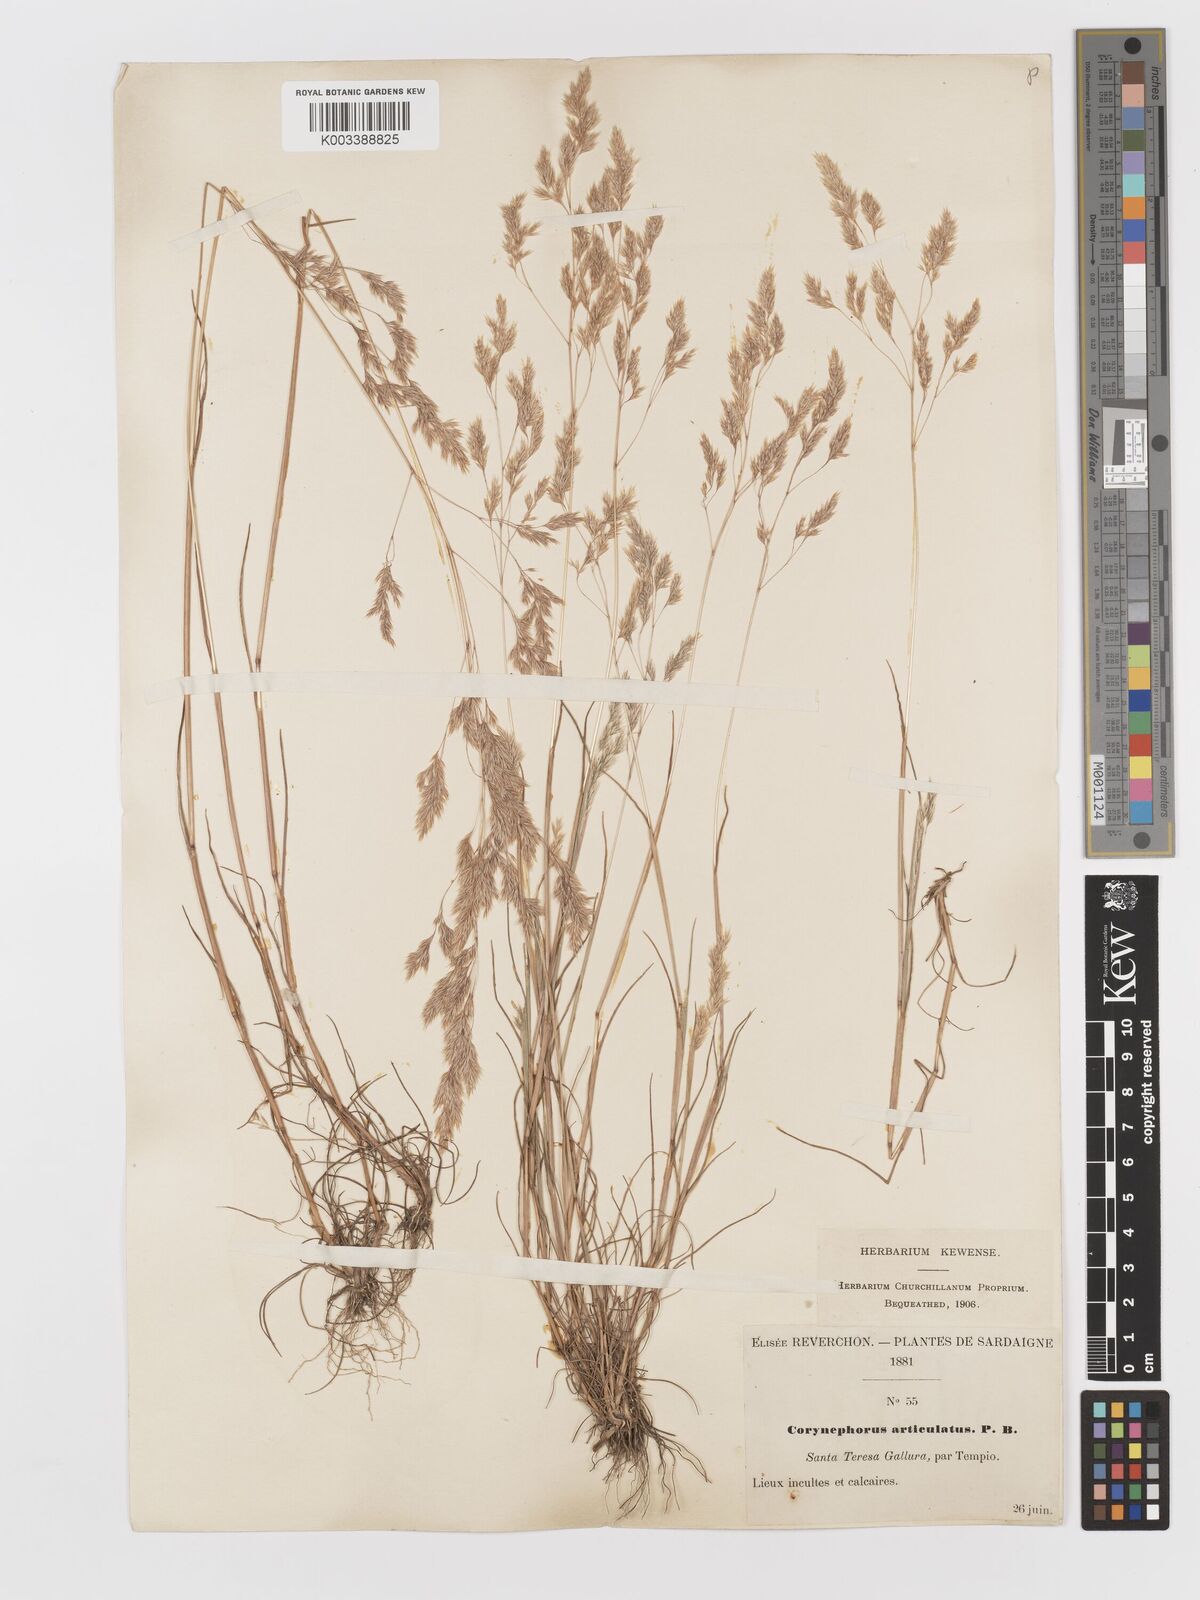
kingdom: Plantae
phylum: Tracheophyta
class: Liliopsida
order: Poales
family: Poaceae
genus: Corynephorus
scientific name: Corynephorus divaricatus
